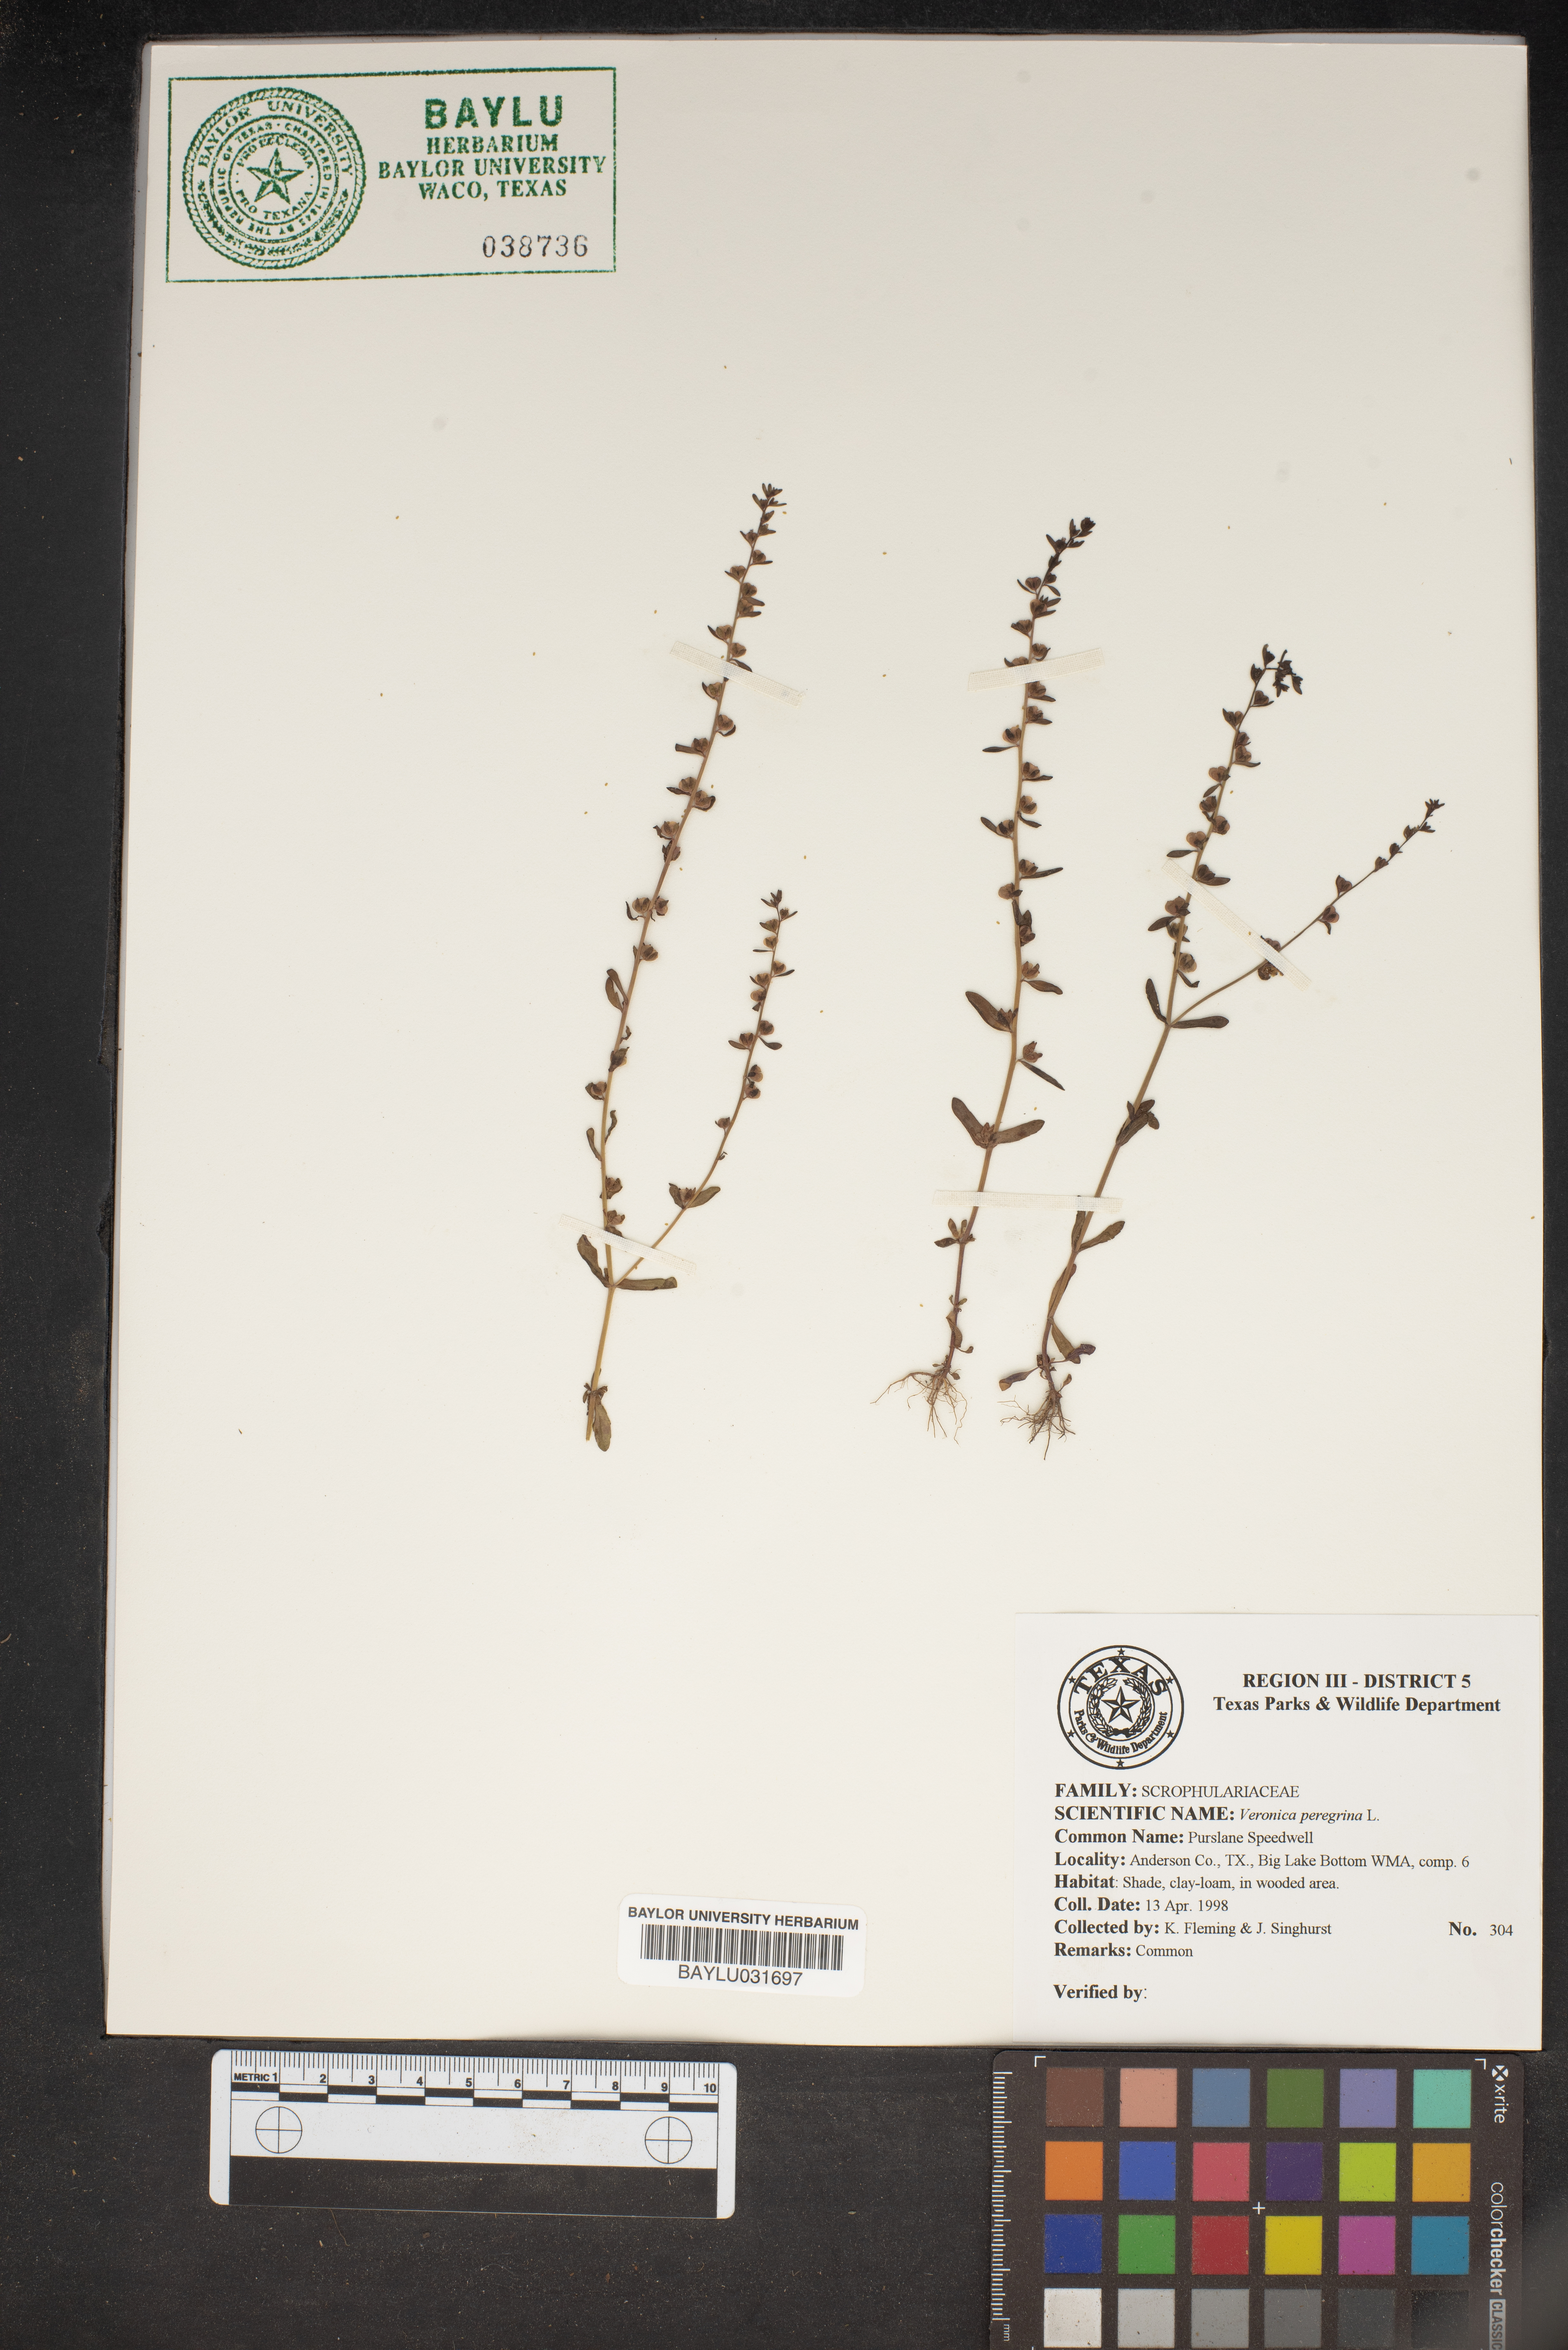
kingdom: Plantae
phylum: Tracheophyta
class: Magnoliopsida
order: Lamiales
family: Plantaginaceae
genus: Veronica
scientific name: Veronica peregrina
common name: Neckweed
